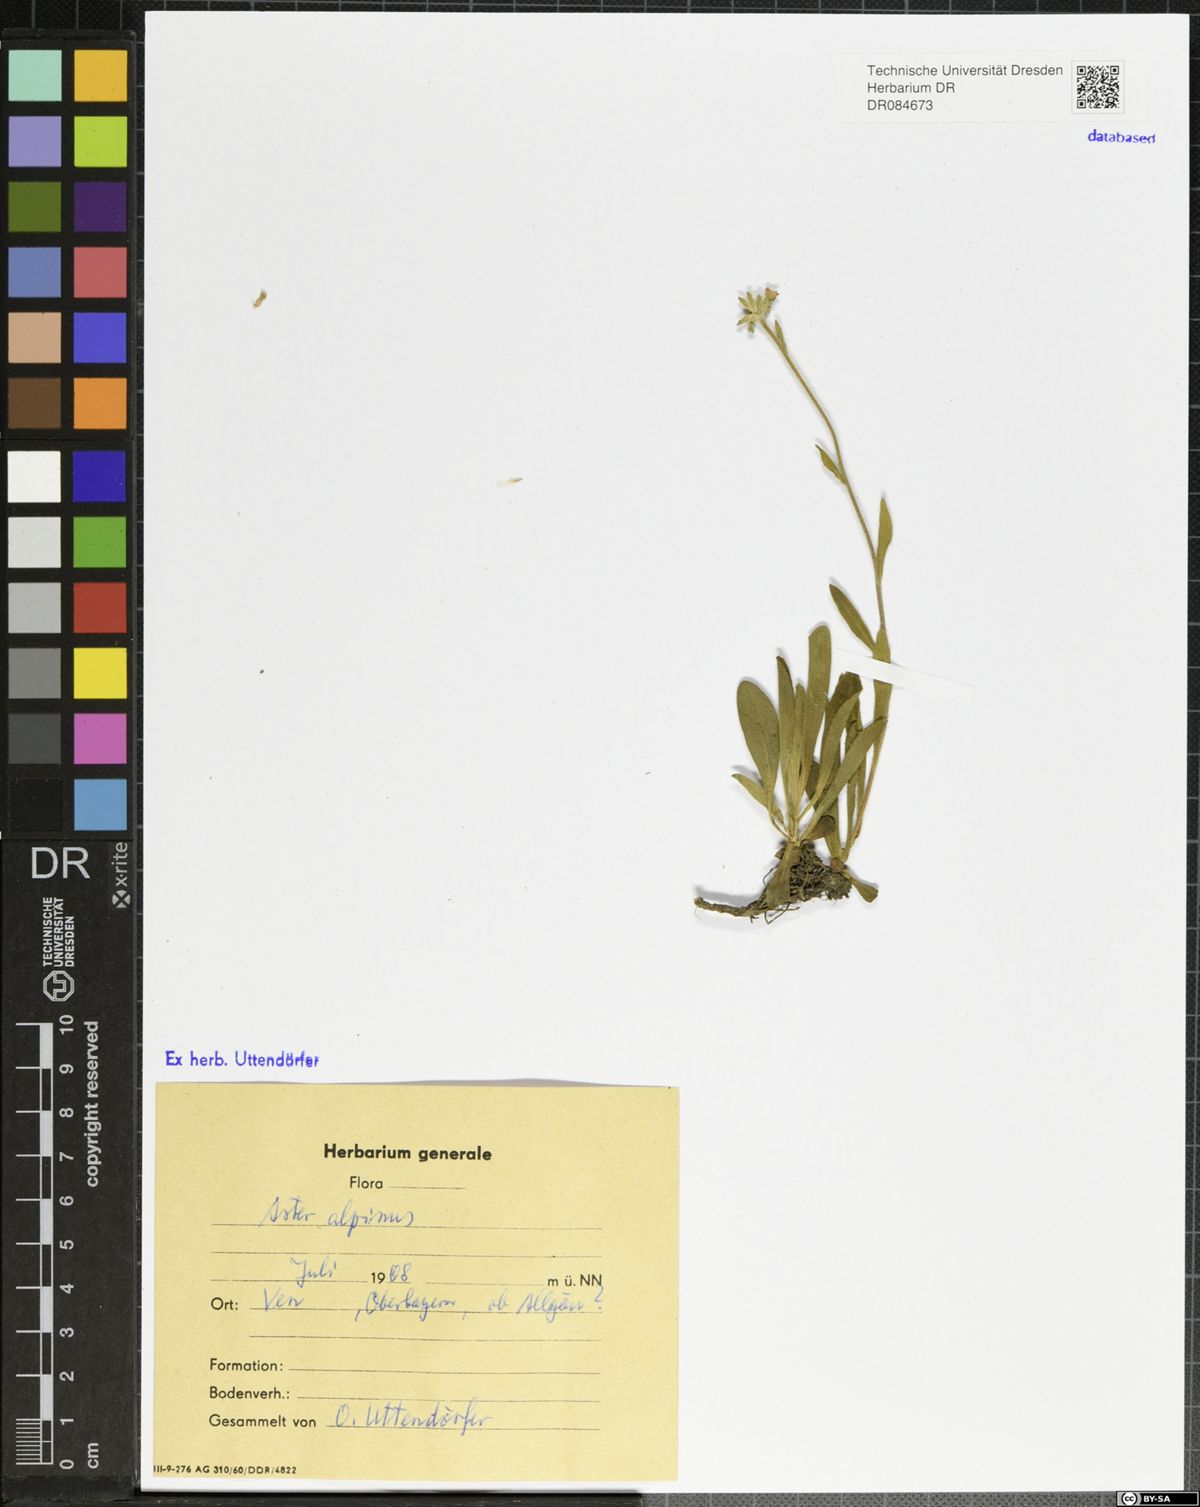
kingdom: Plantae
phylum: Tracheophyta
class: Magnoliopsida
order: Asterales
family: Asteraceae
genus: Aster
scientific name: Aster alpinus
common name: Alpine aster
